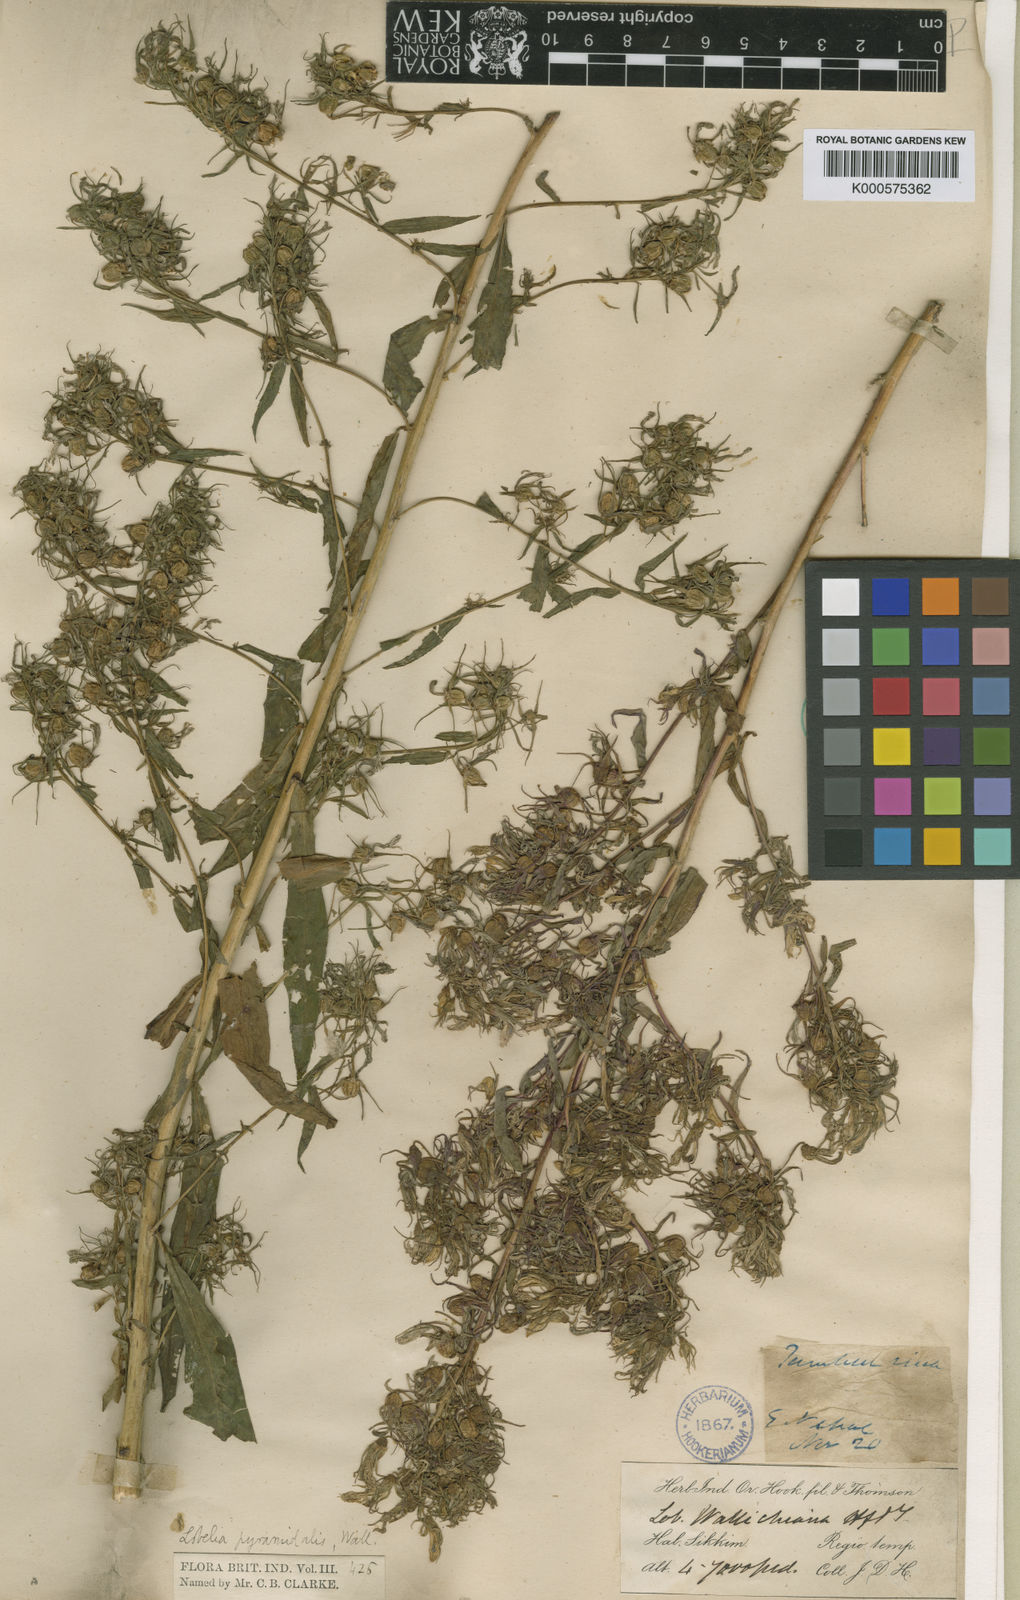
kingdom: Plantae
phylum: Tracheophyta
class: Magnoliopsida
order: Asterales
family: Campanulaceae
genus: Lobelia
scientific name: Lobelia
